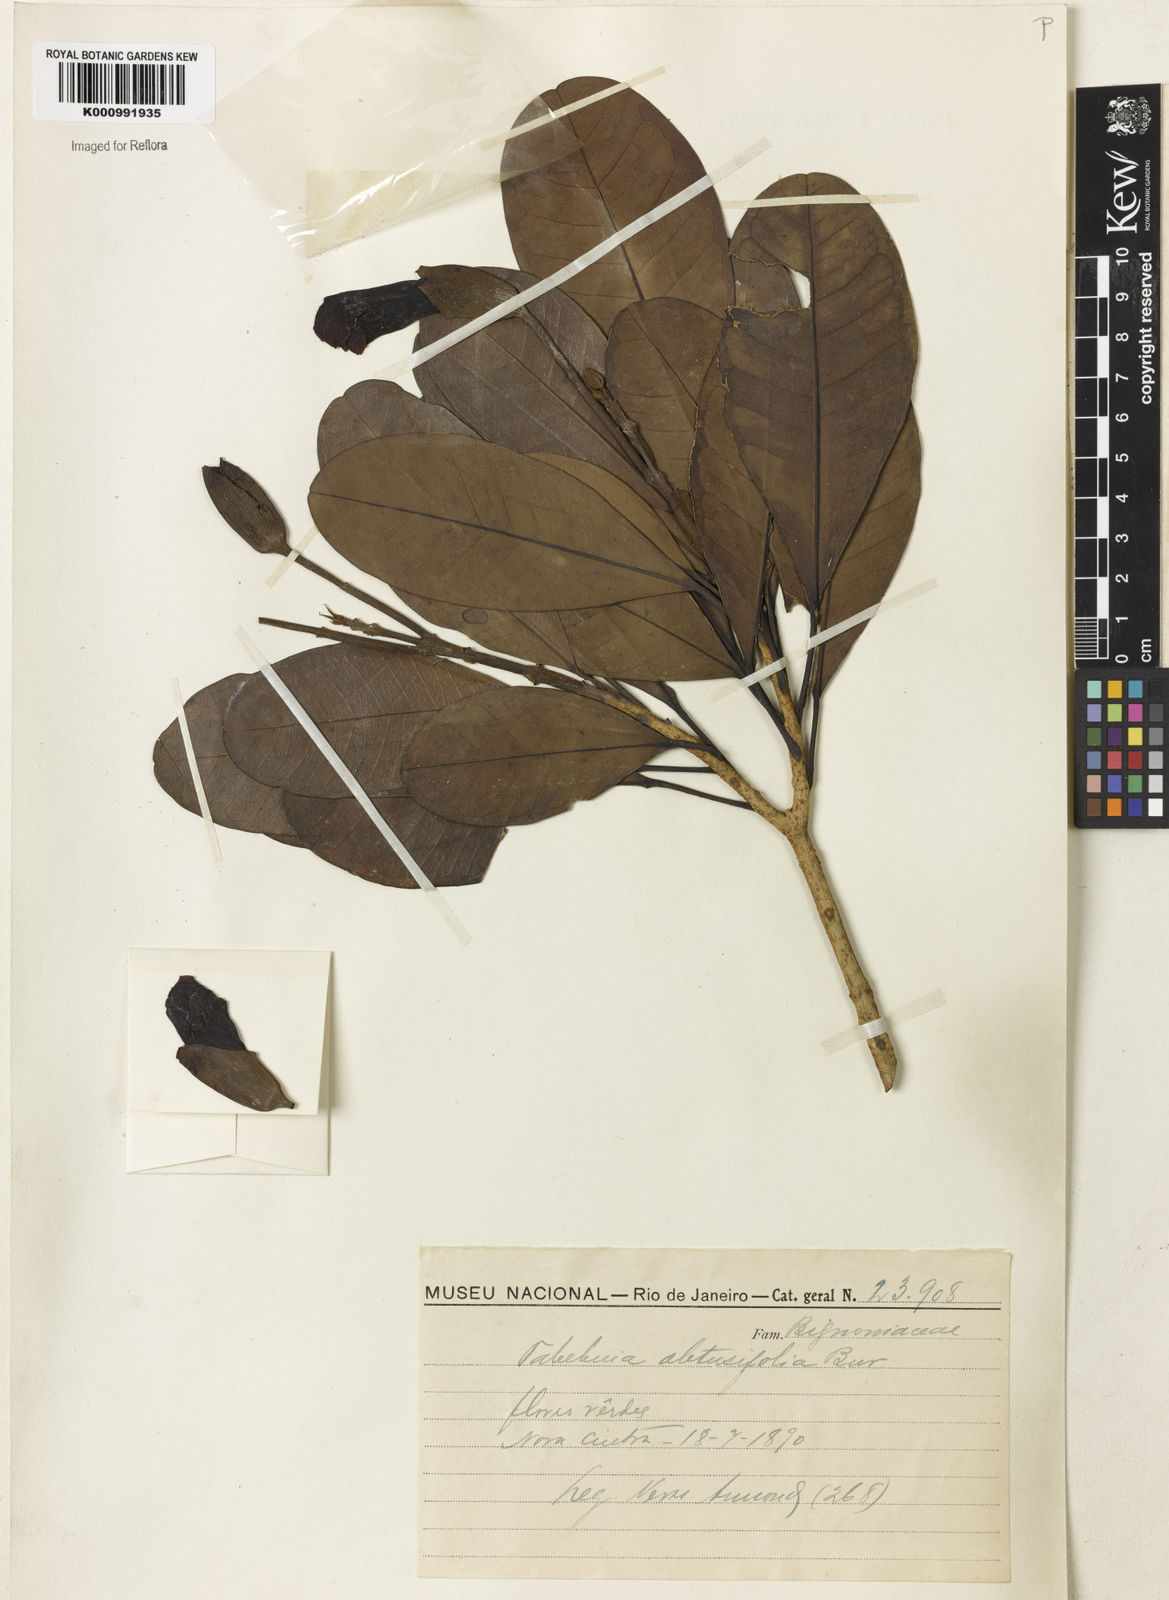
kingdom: Plantae
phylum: Tracheophyta
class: Magnoliopsida
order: Lamiales
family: Bignoniaceae
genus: Tabebuia
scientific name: Tabebuia obtusifolia
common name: Guadeloupe trumpet-tree
